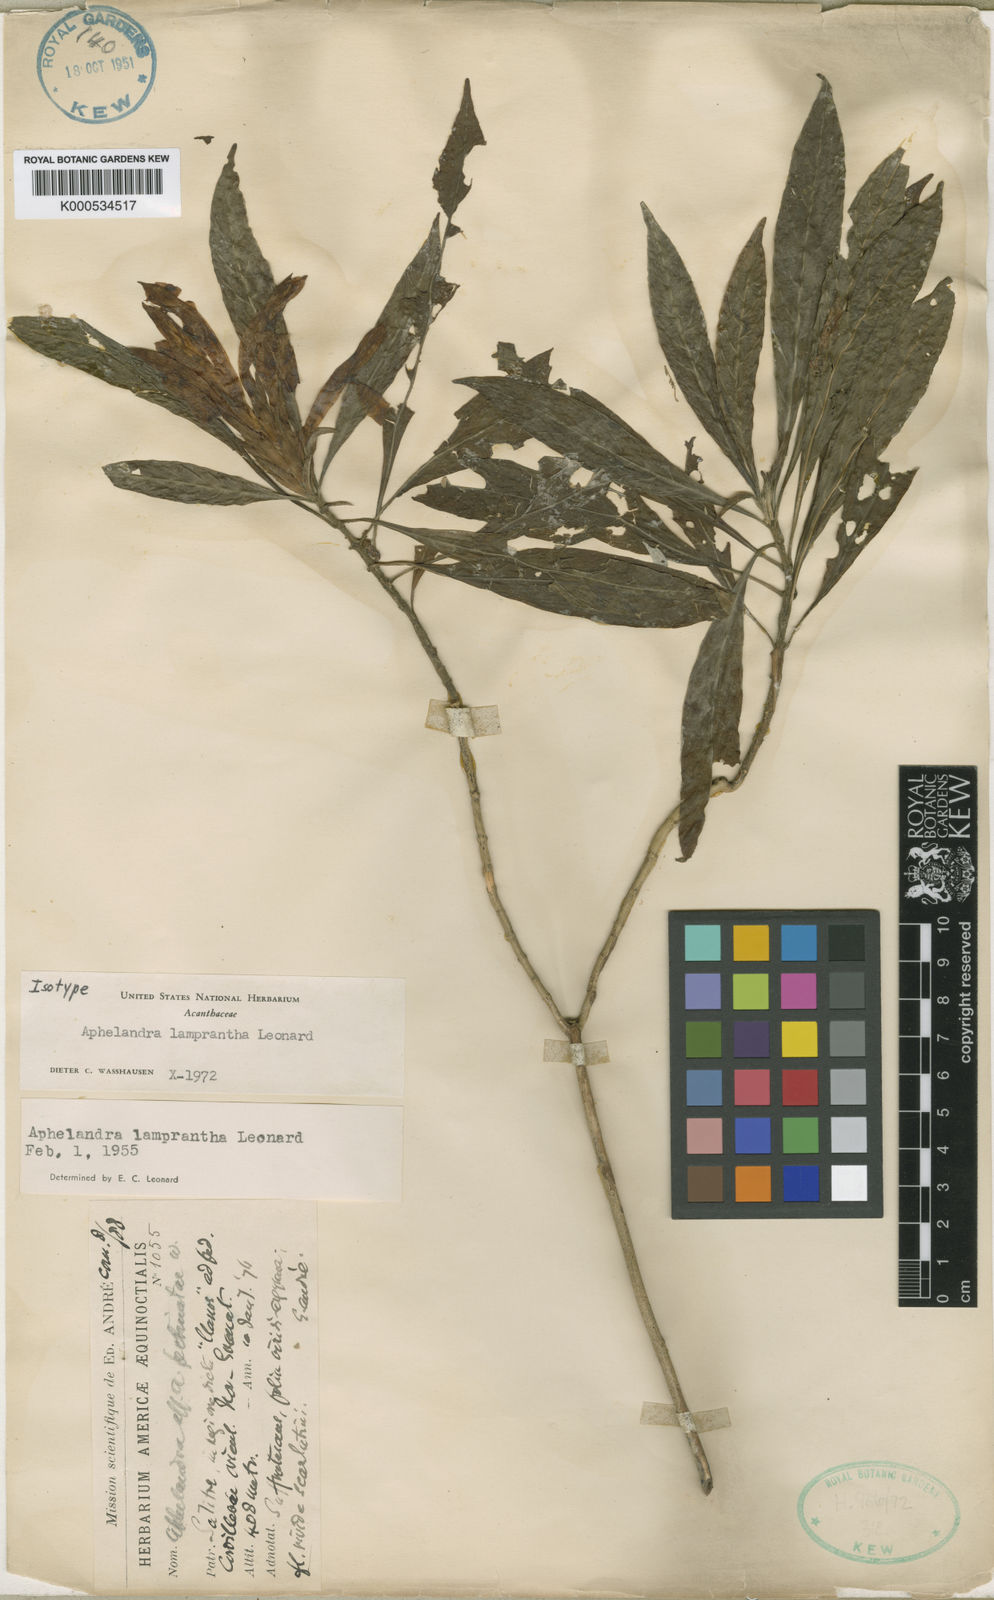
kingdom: Plantae
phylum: Tracheophyta
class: Magnoliopsida
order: Lamiales
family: Acanthaceae
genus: Aphelandra
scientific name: Aphelandra lamprantha
